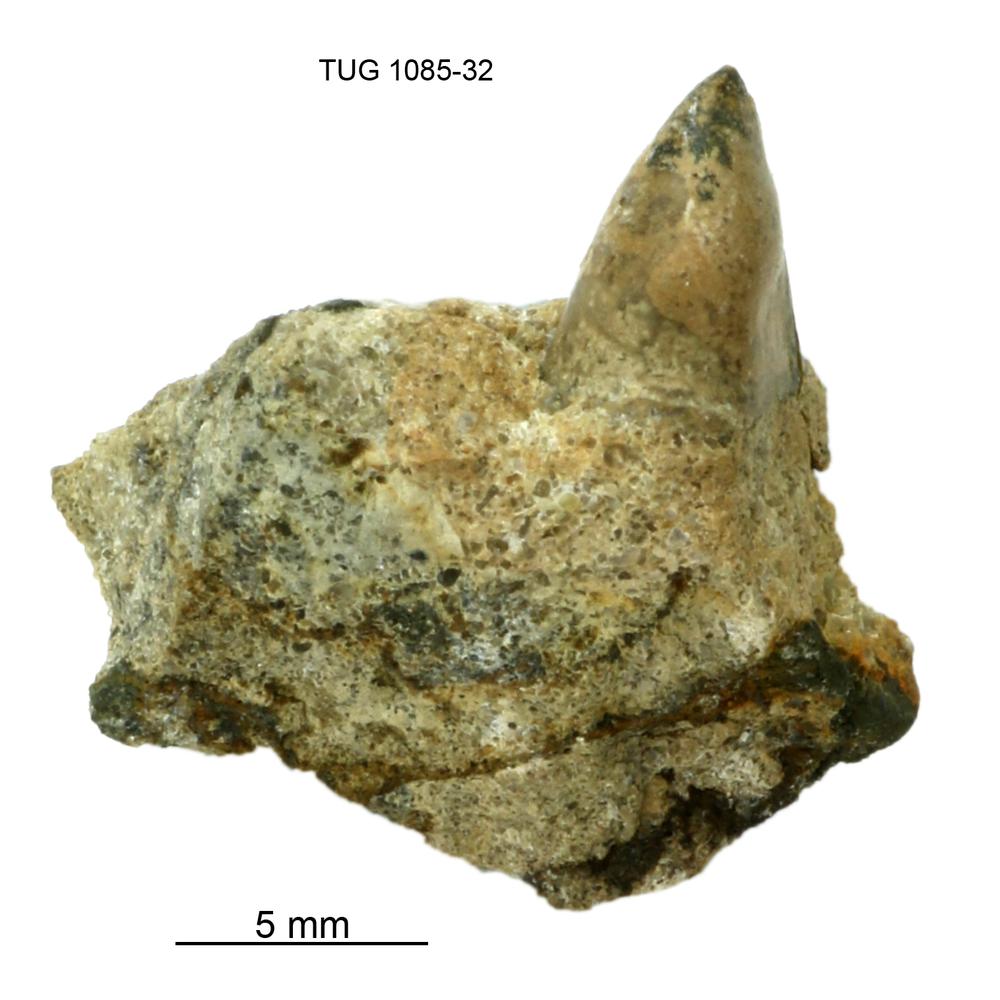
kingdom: Animalia
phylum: Mollusca
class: Gastropoda
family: Pollicinidae
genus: Pollicina
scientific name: Pollicina
